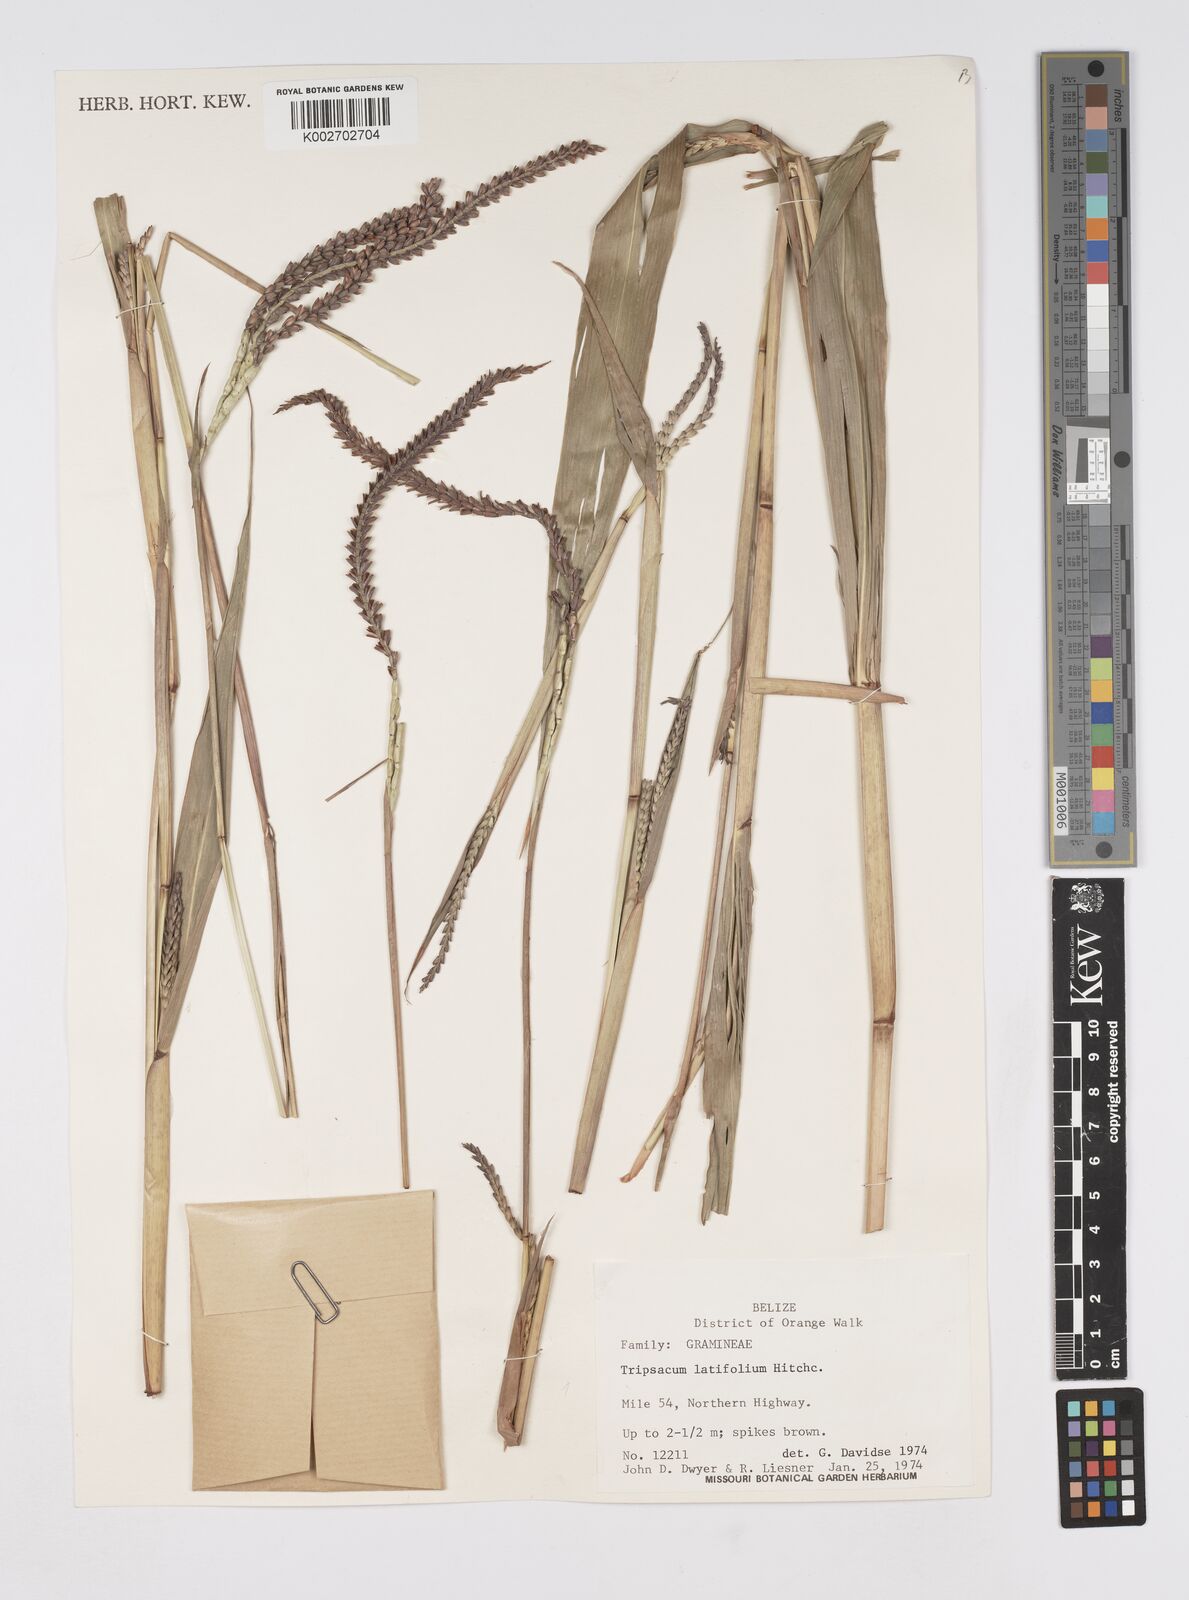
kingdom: Plantae
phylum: Tracheophyta
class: Liliopsida
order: Poales
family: Poaceae
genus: Tripsacum
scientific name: Tripsacum latifolium
